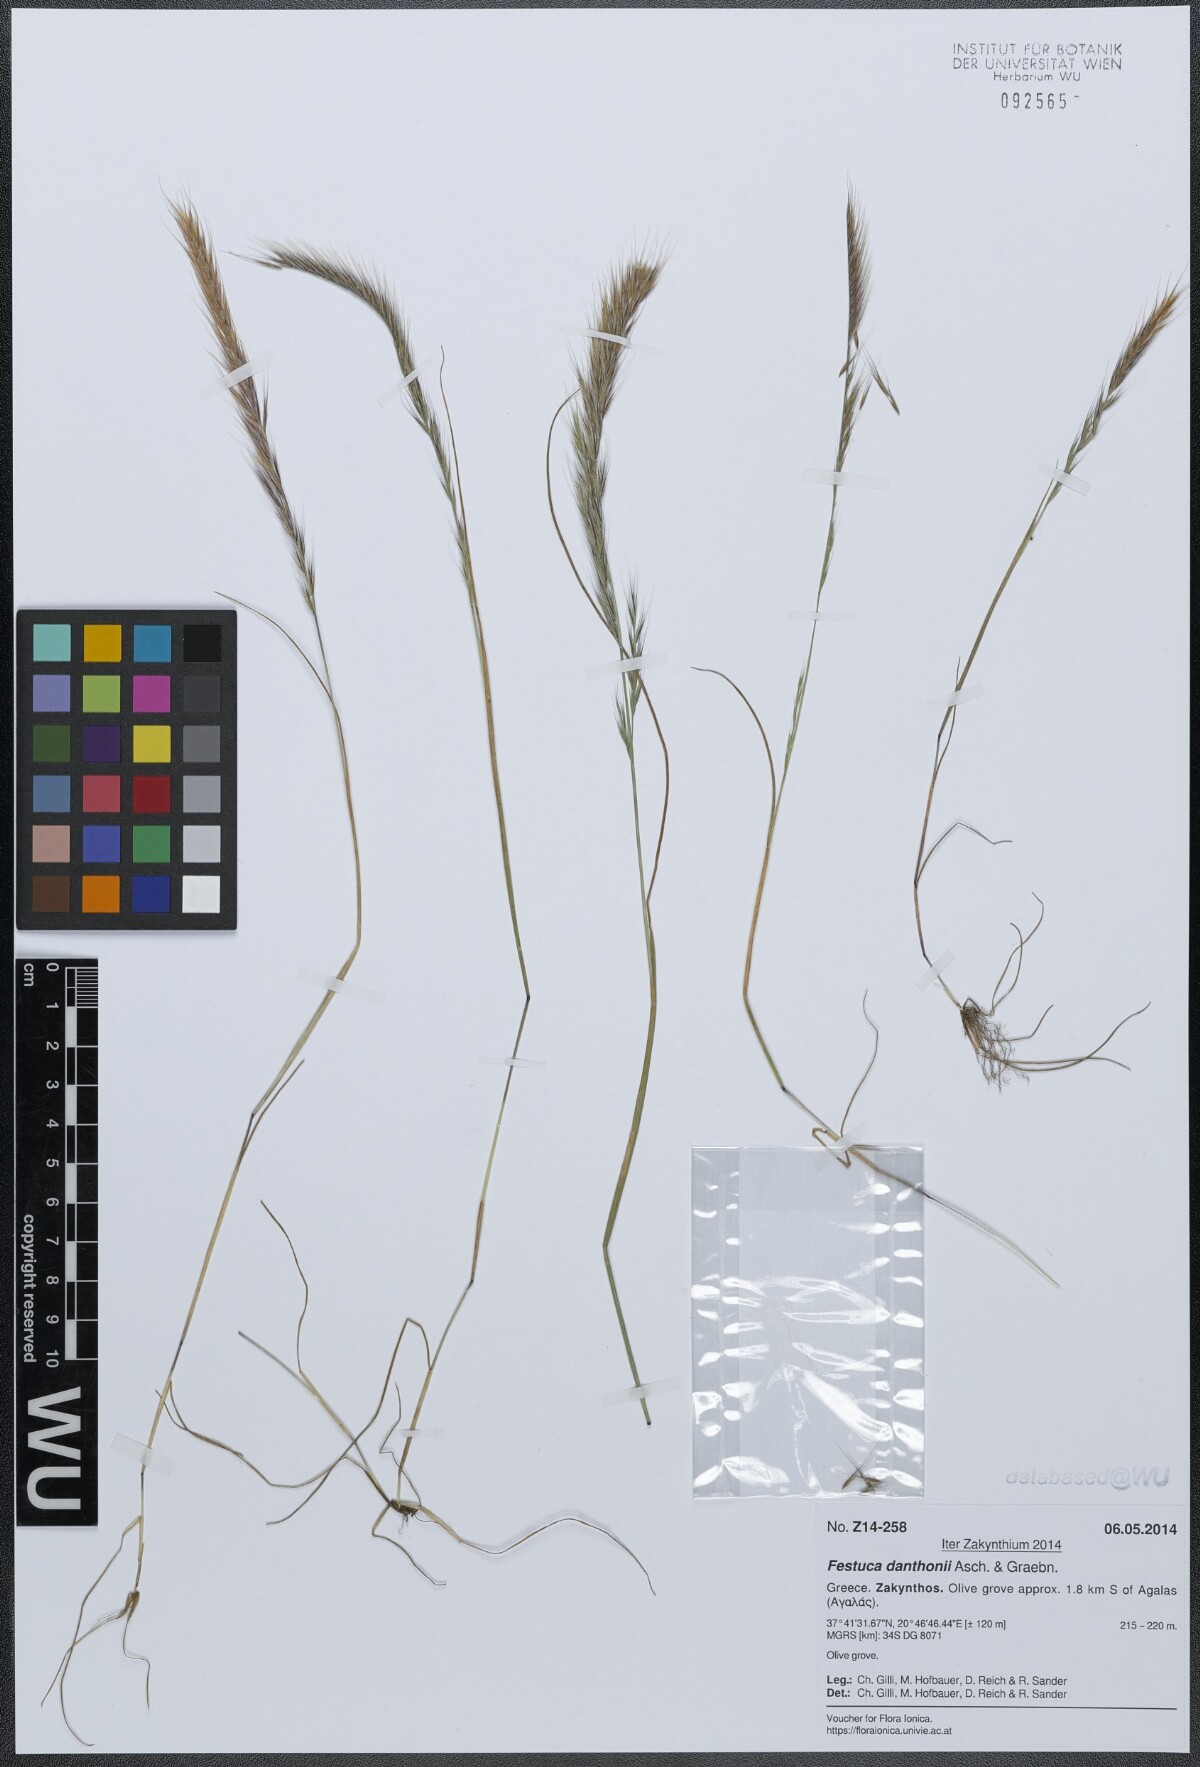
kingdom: Plantae
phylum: Tracheophyta
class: Liliopsida
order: Poales
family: Poaceae
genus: Festuca
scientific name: Festuca ambigua
